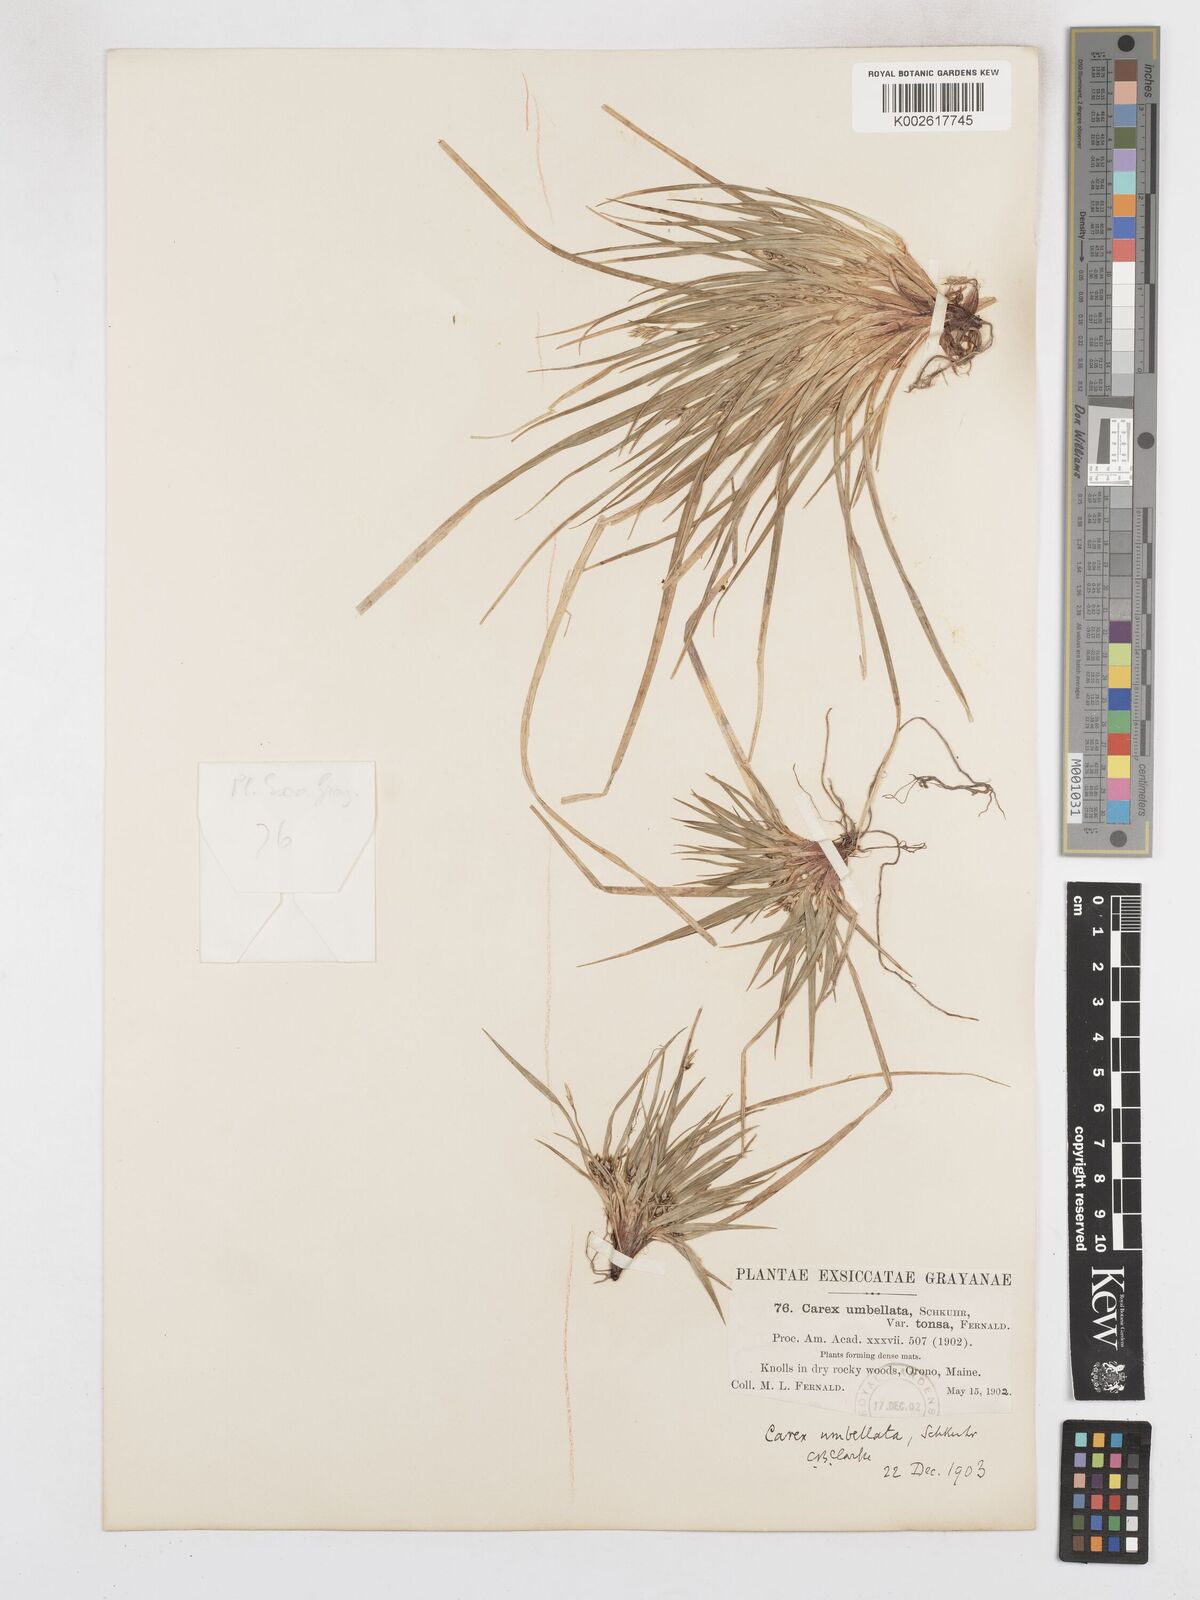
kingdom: Plantae
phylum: Tracheophyta
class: Liliopsida
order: Poales
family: Cyperaceae
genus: Carex
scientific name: Carex tonsa
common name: Bald sedge
